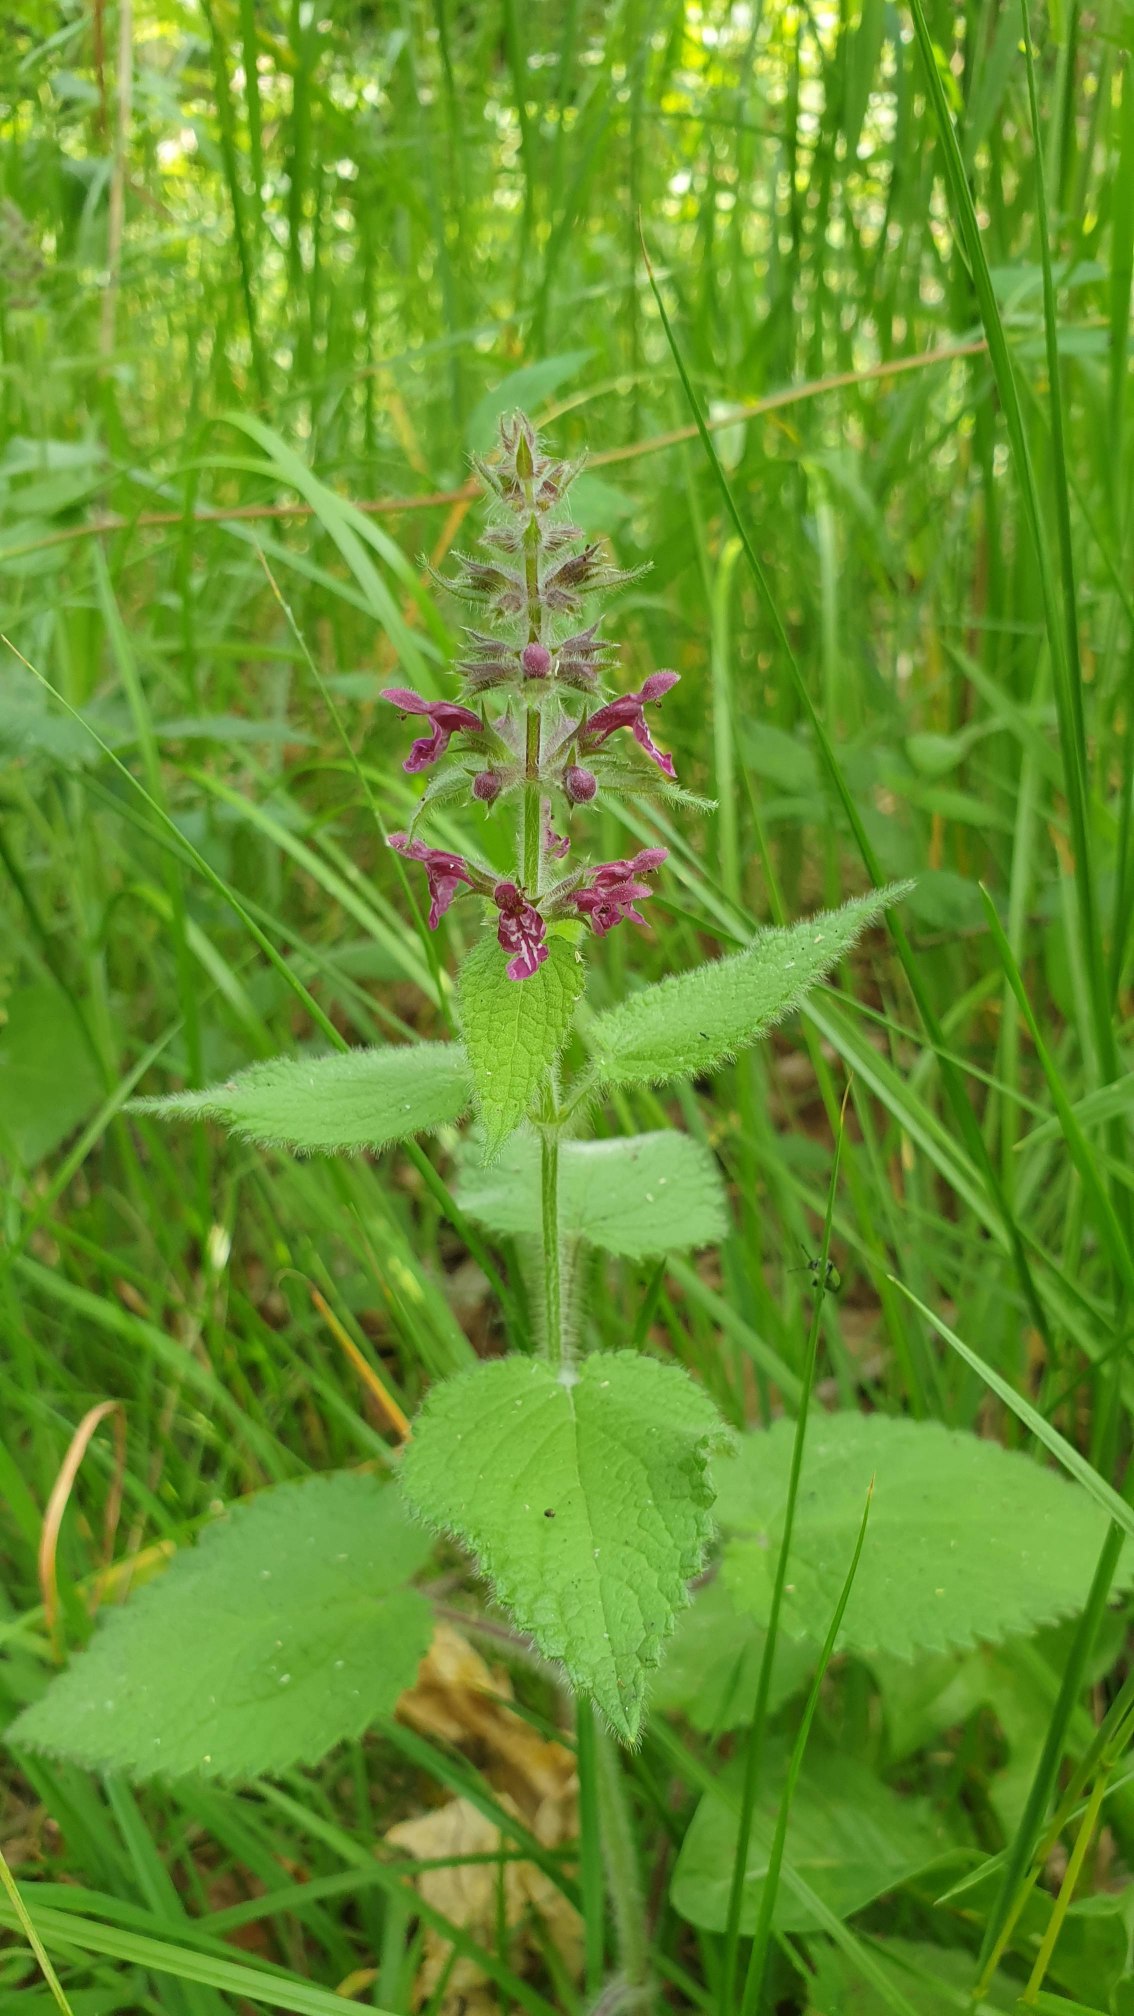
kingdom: Plantae
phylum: Tracheophyta
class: Magnoliopsida
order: Lamiales
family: Lamiaceae
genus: Stachys
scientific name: Stachys sylvatica
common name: Skov-galtetand
